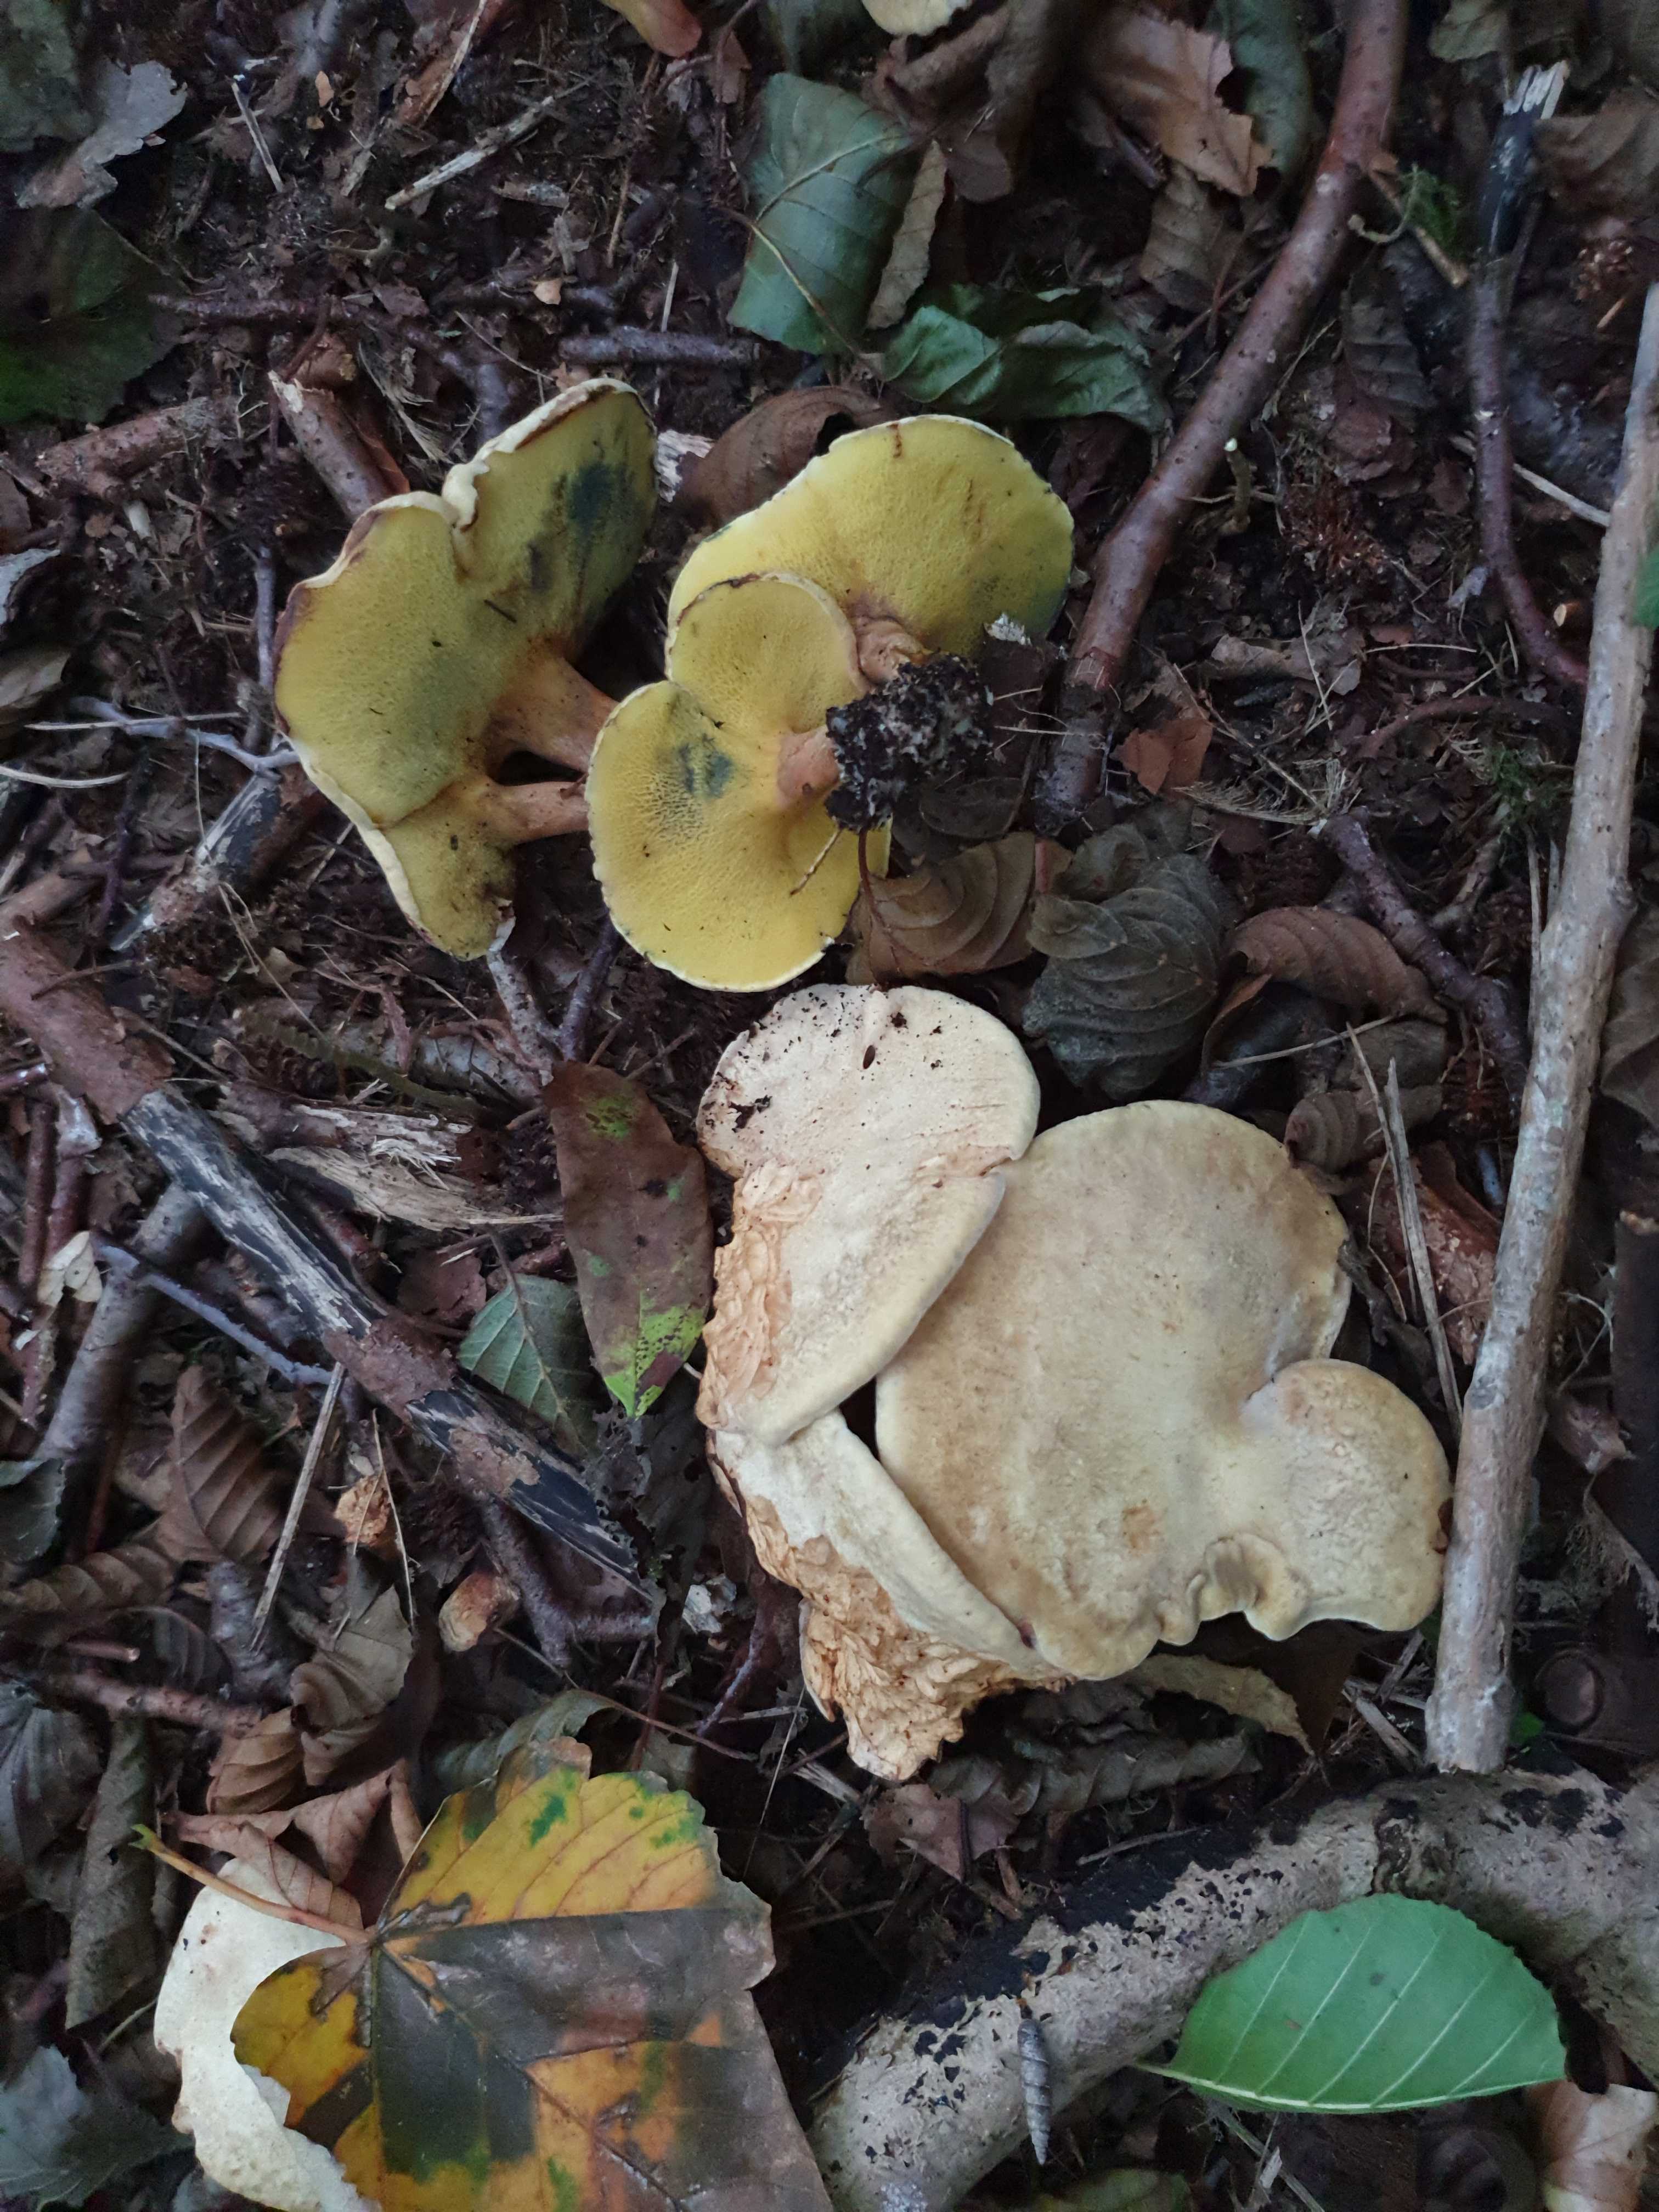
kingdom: Fungi
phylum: Basidiomycota
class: Agaricomycetes
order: Boletales
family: Paxillaceae
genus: Gyrodon
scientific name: Gyrodon lividus
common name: ellerørhat
